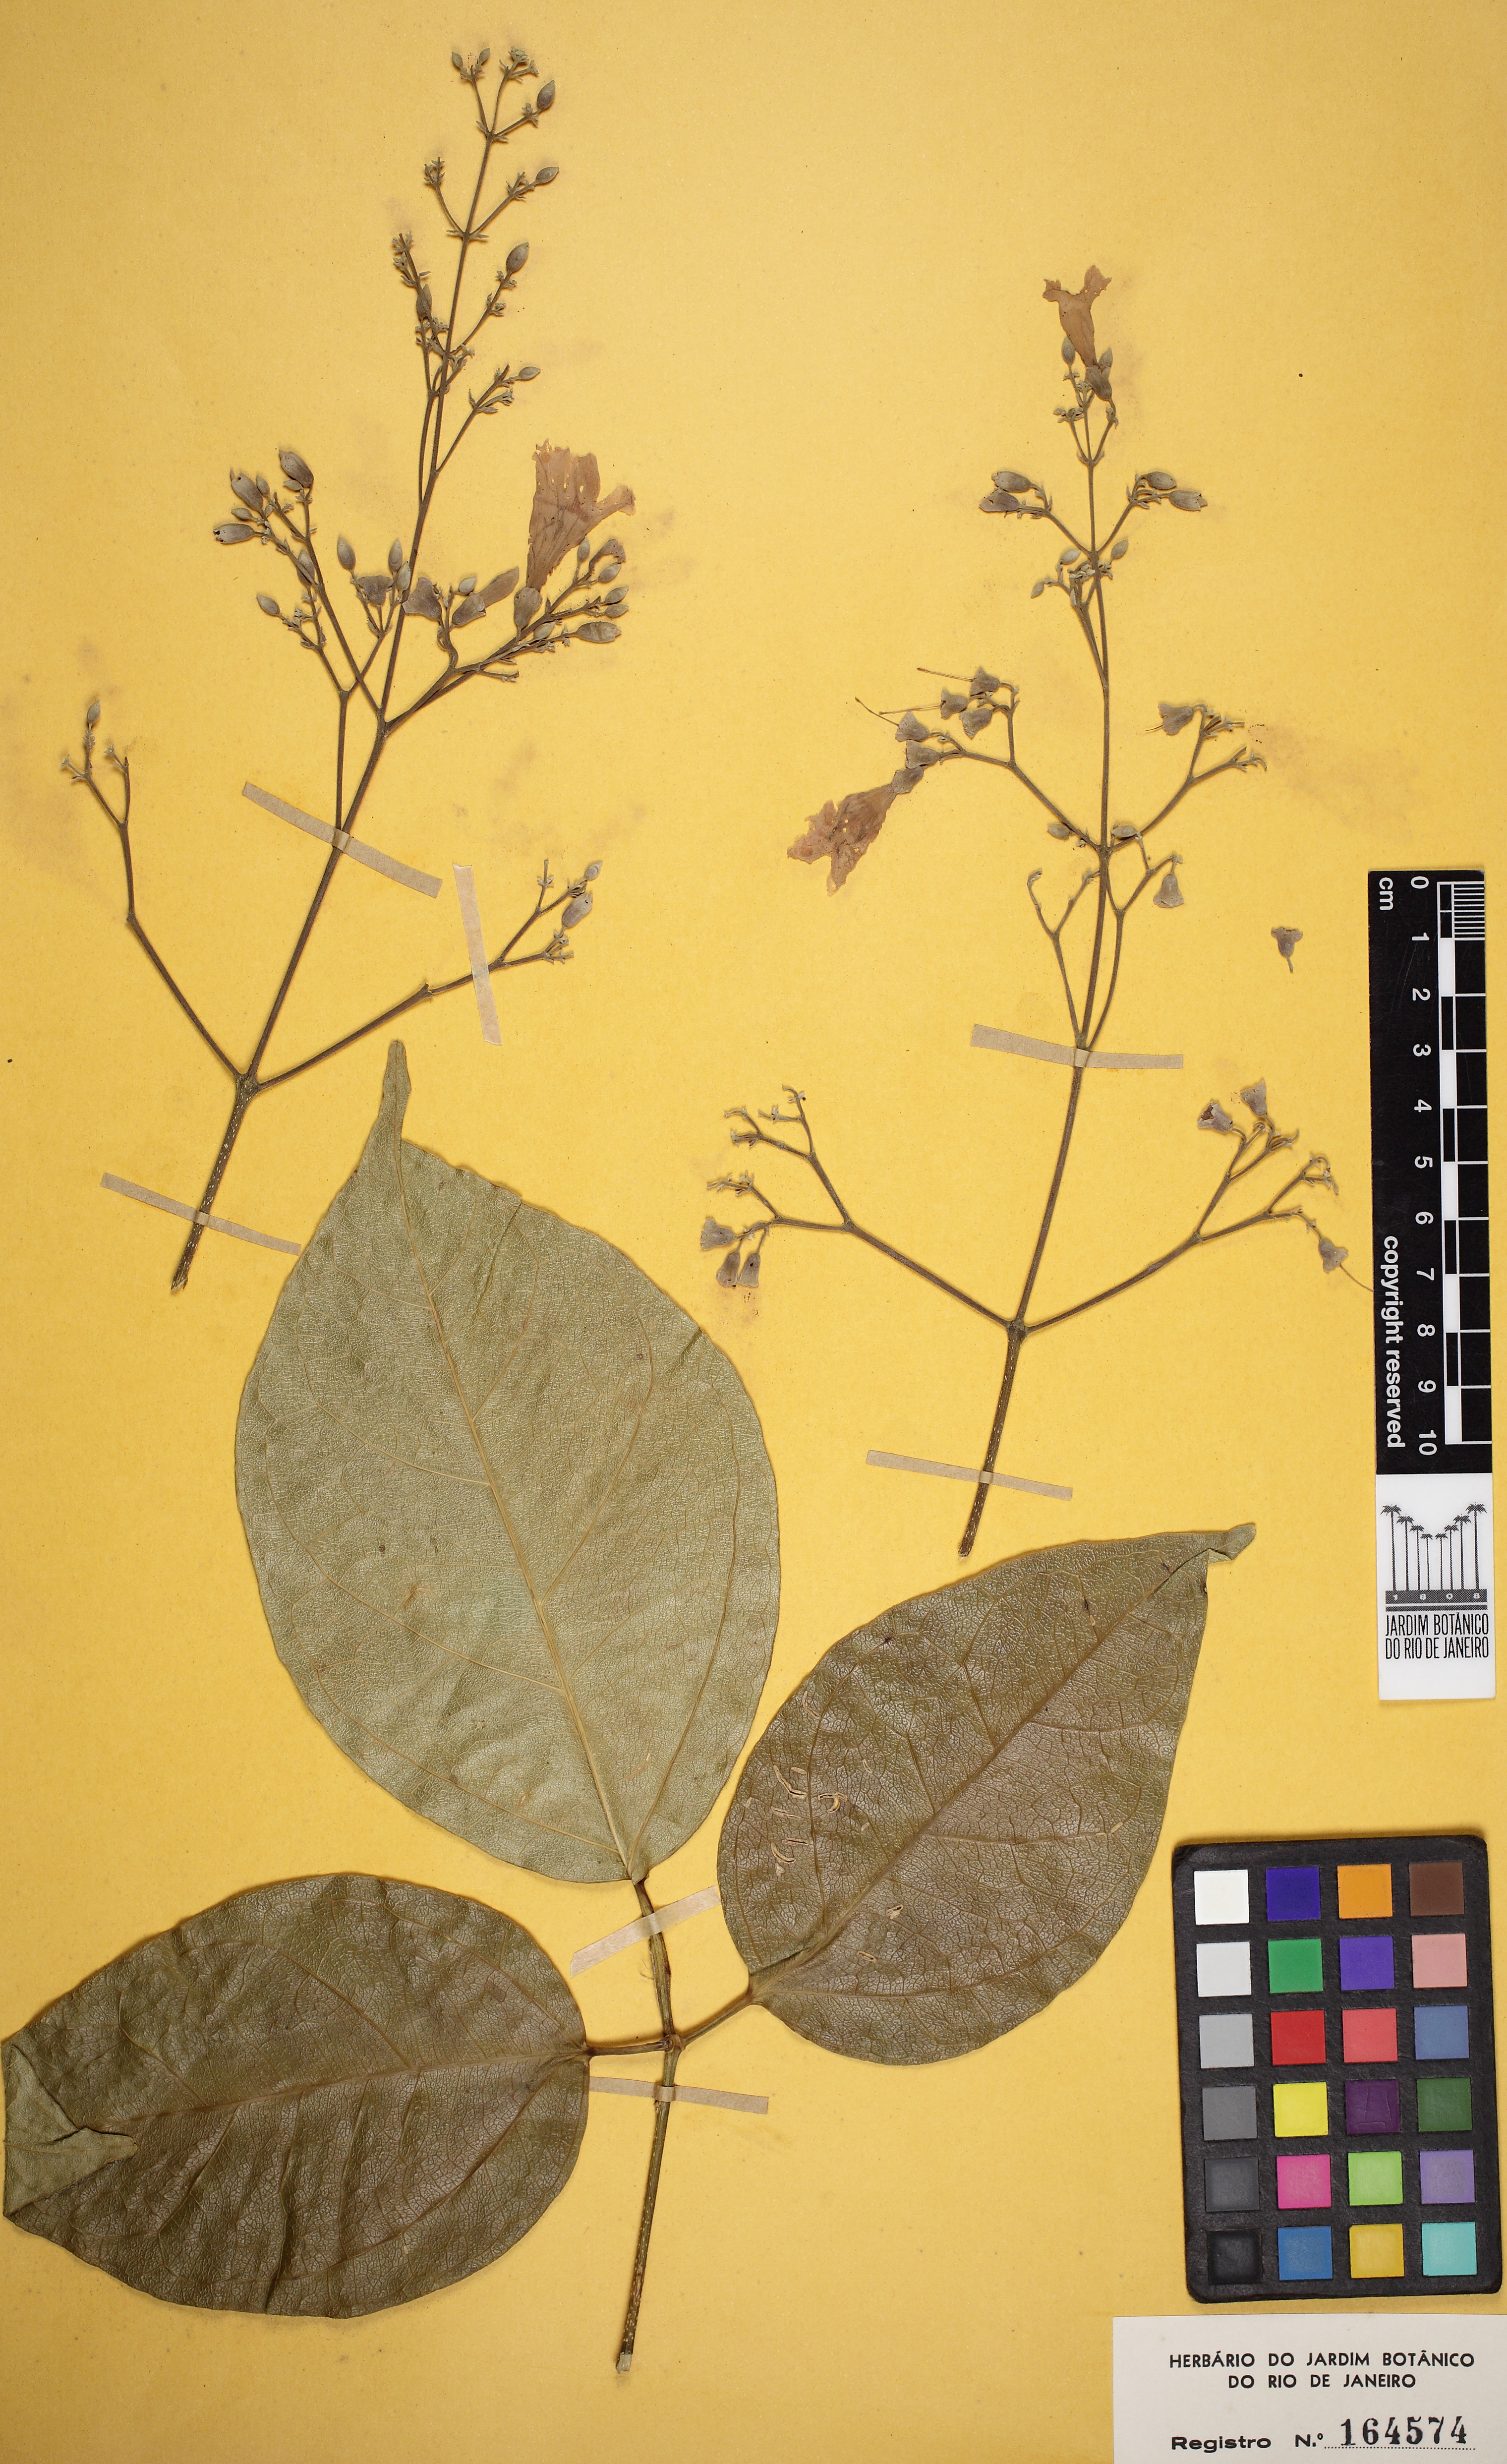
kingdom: Plantae
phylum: Tracheophyta
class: Magnoliopsida
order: Lamiales
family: Bignoniaceae
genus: Fridericia
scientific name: Fridericia conjugata
